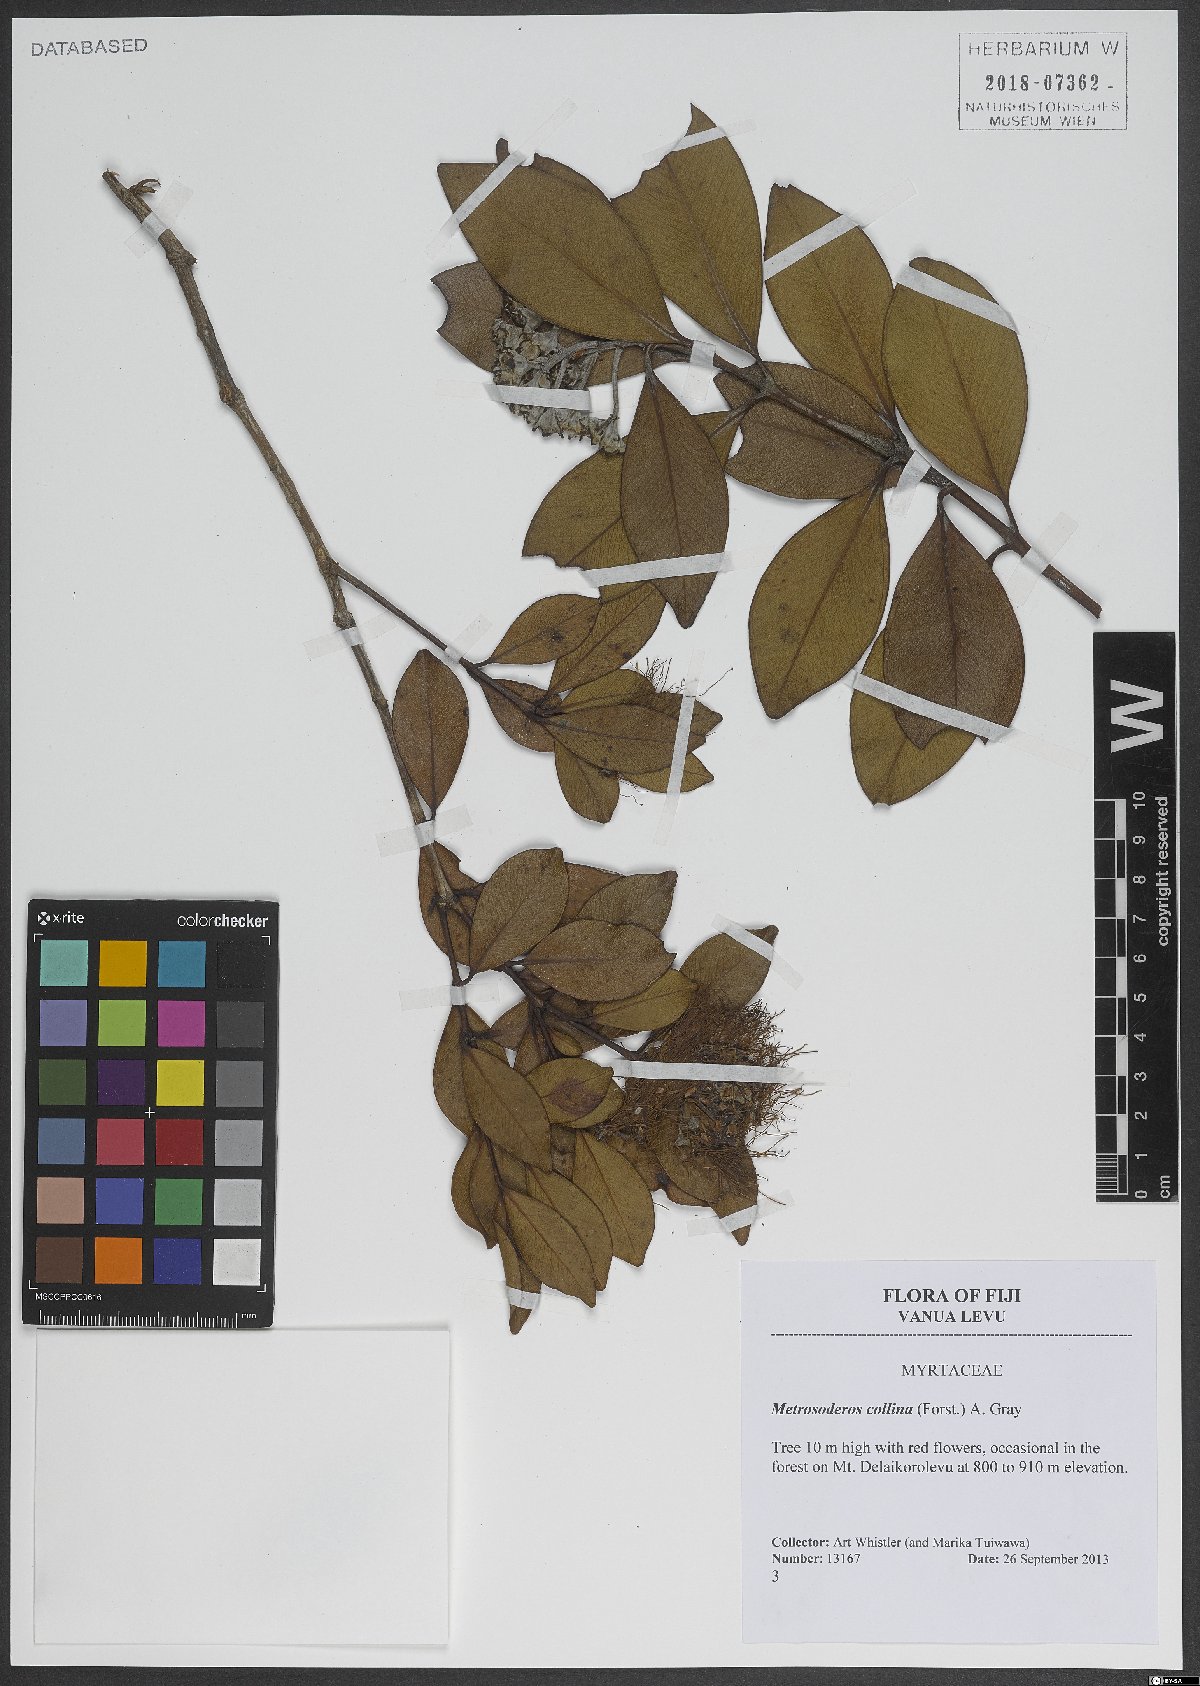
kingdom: Plantae
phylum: Tracheophyta
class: Magnoliopsida
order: Myrtales
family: Myrtaceae
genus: Metrosideros
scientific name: Metrosideros collina
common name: Vunga
